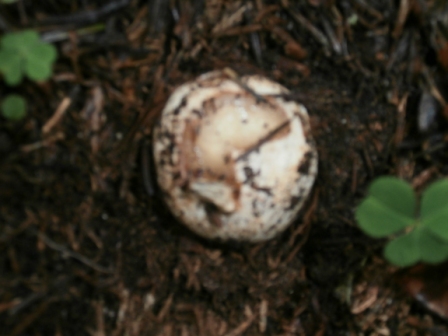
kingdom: Fungi
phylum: Basidiomycota
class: Agaricomycetes
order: Phallales
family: Phallaceae
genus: Phallus
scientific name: Phallus impudicus
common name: almindelig stinksvamp
